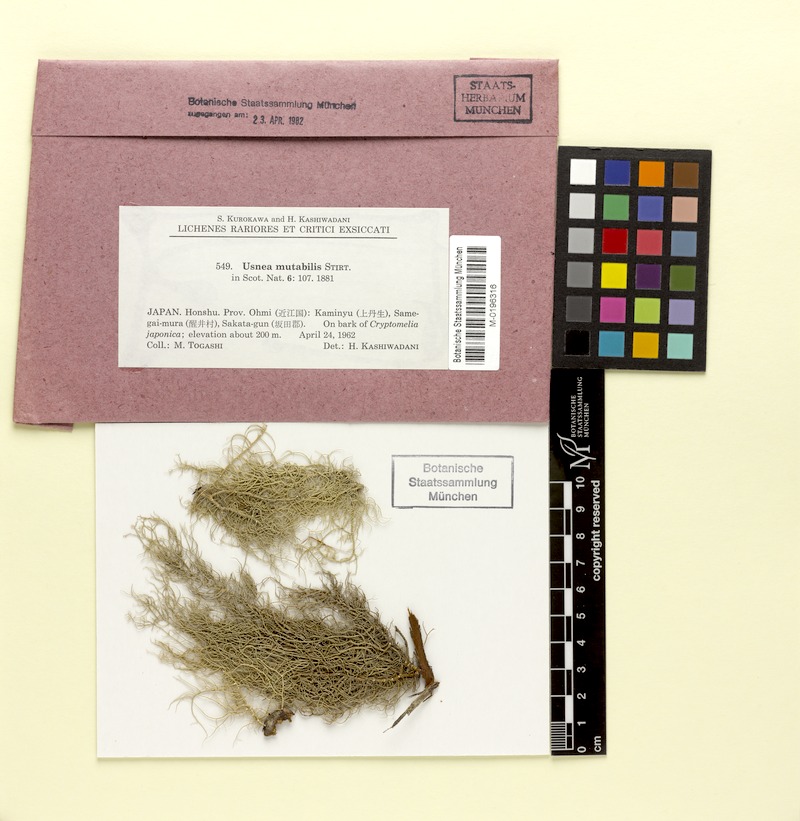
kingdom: Fungi
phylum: Ascomycota
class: Lecanoromycetes
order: Lecanorales
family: Parmeliaceae
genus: Usnea
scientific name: Usnea mutabilis
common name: Bloody beard
